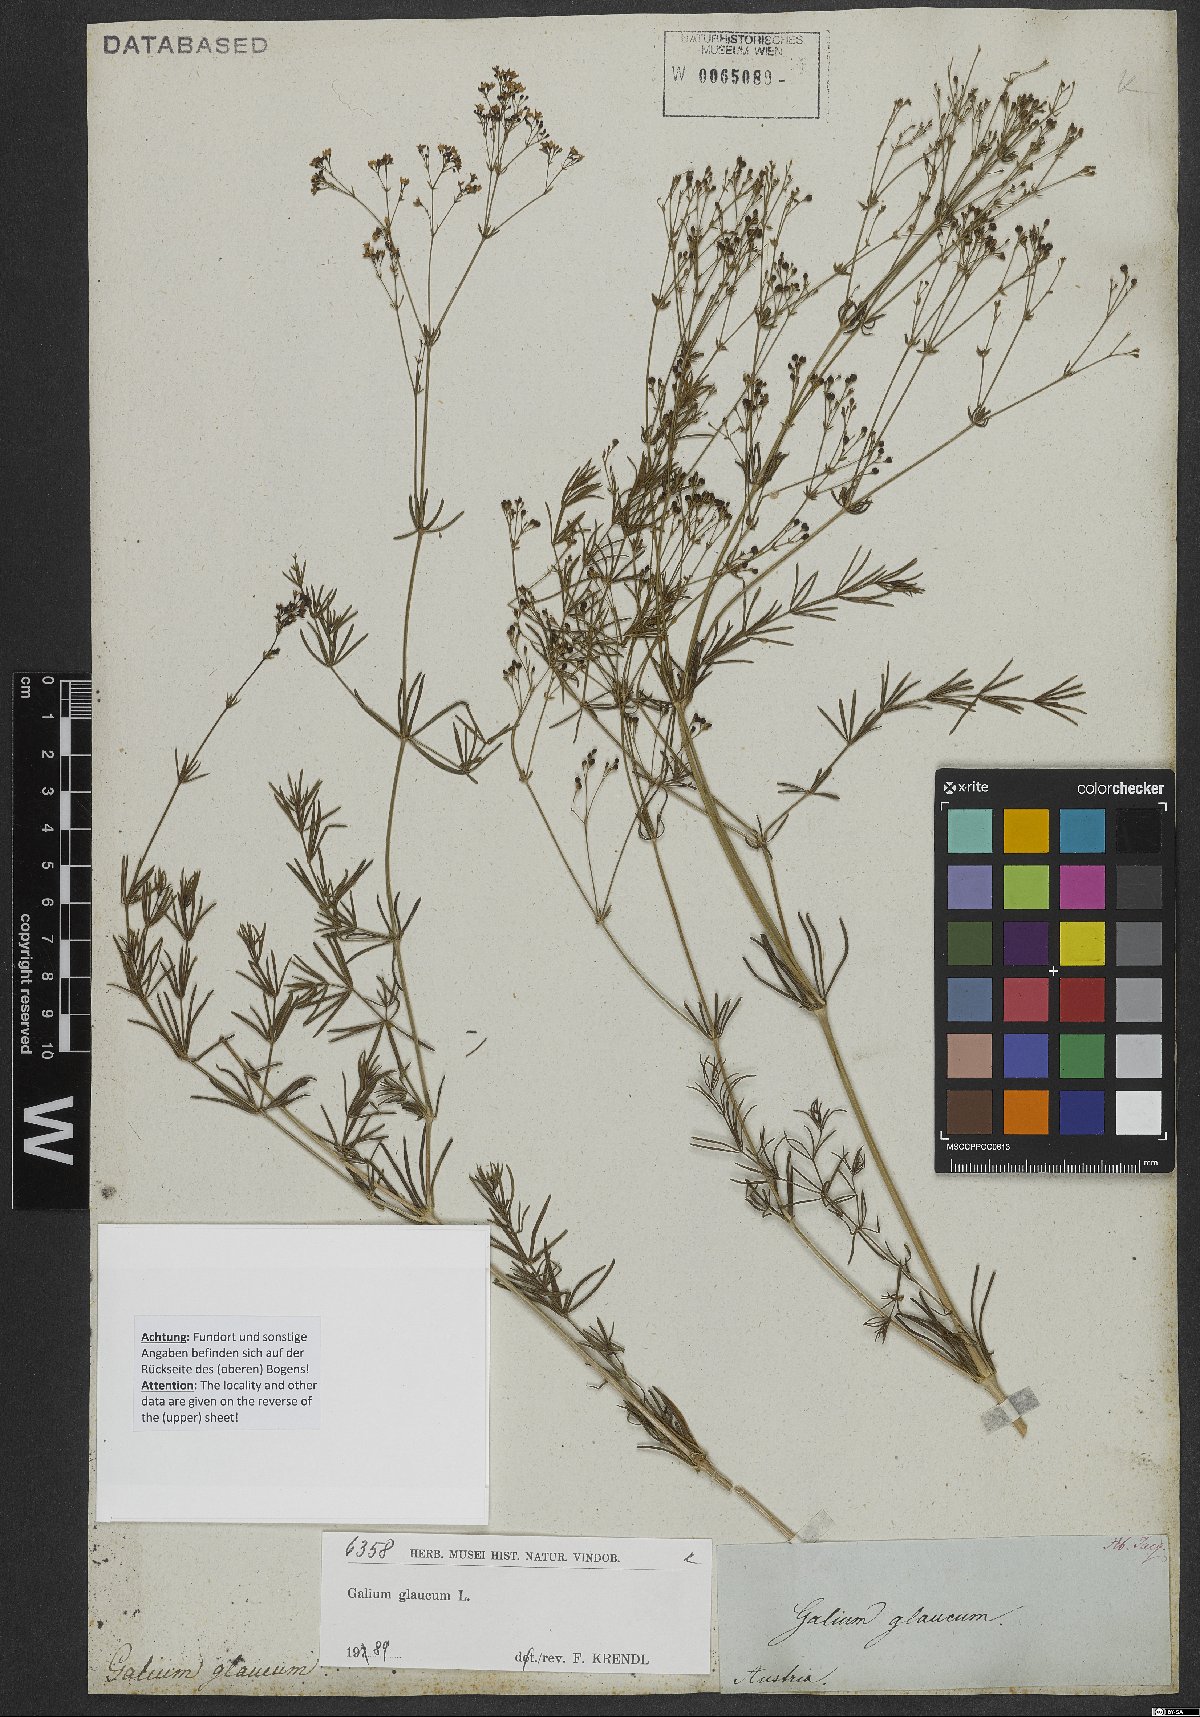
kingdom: Plantae
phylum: Tracheophyta
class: Magnoliopsida
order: Gentianales
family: Rubiaceae
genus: Galium
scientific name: Galium glaucum
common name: Waxy bedstraw
